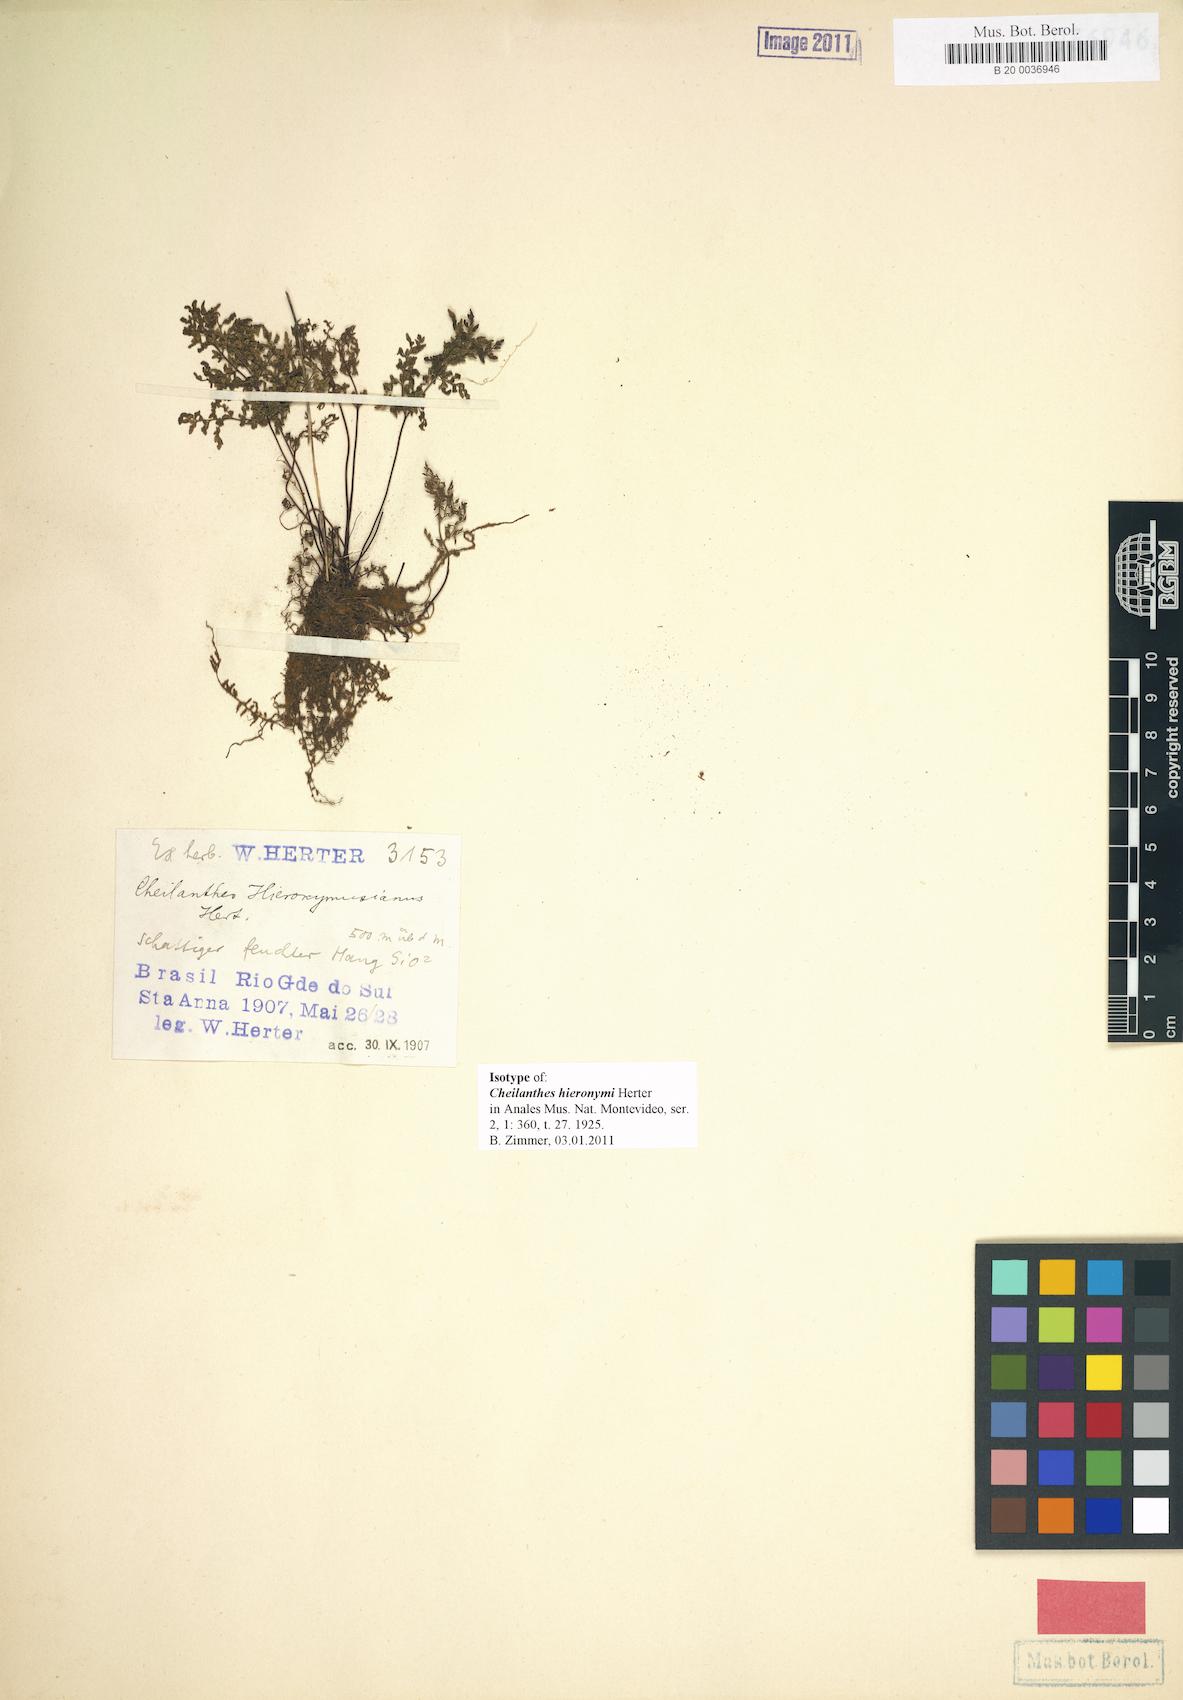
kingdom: Plantae
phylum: Tracheophyta
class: Polypodiopsida
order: Polypodiales
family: Pteridaceae
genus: Cheilanthes
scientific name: Cheilanthes hieronymi
